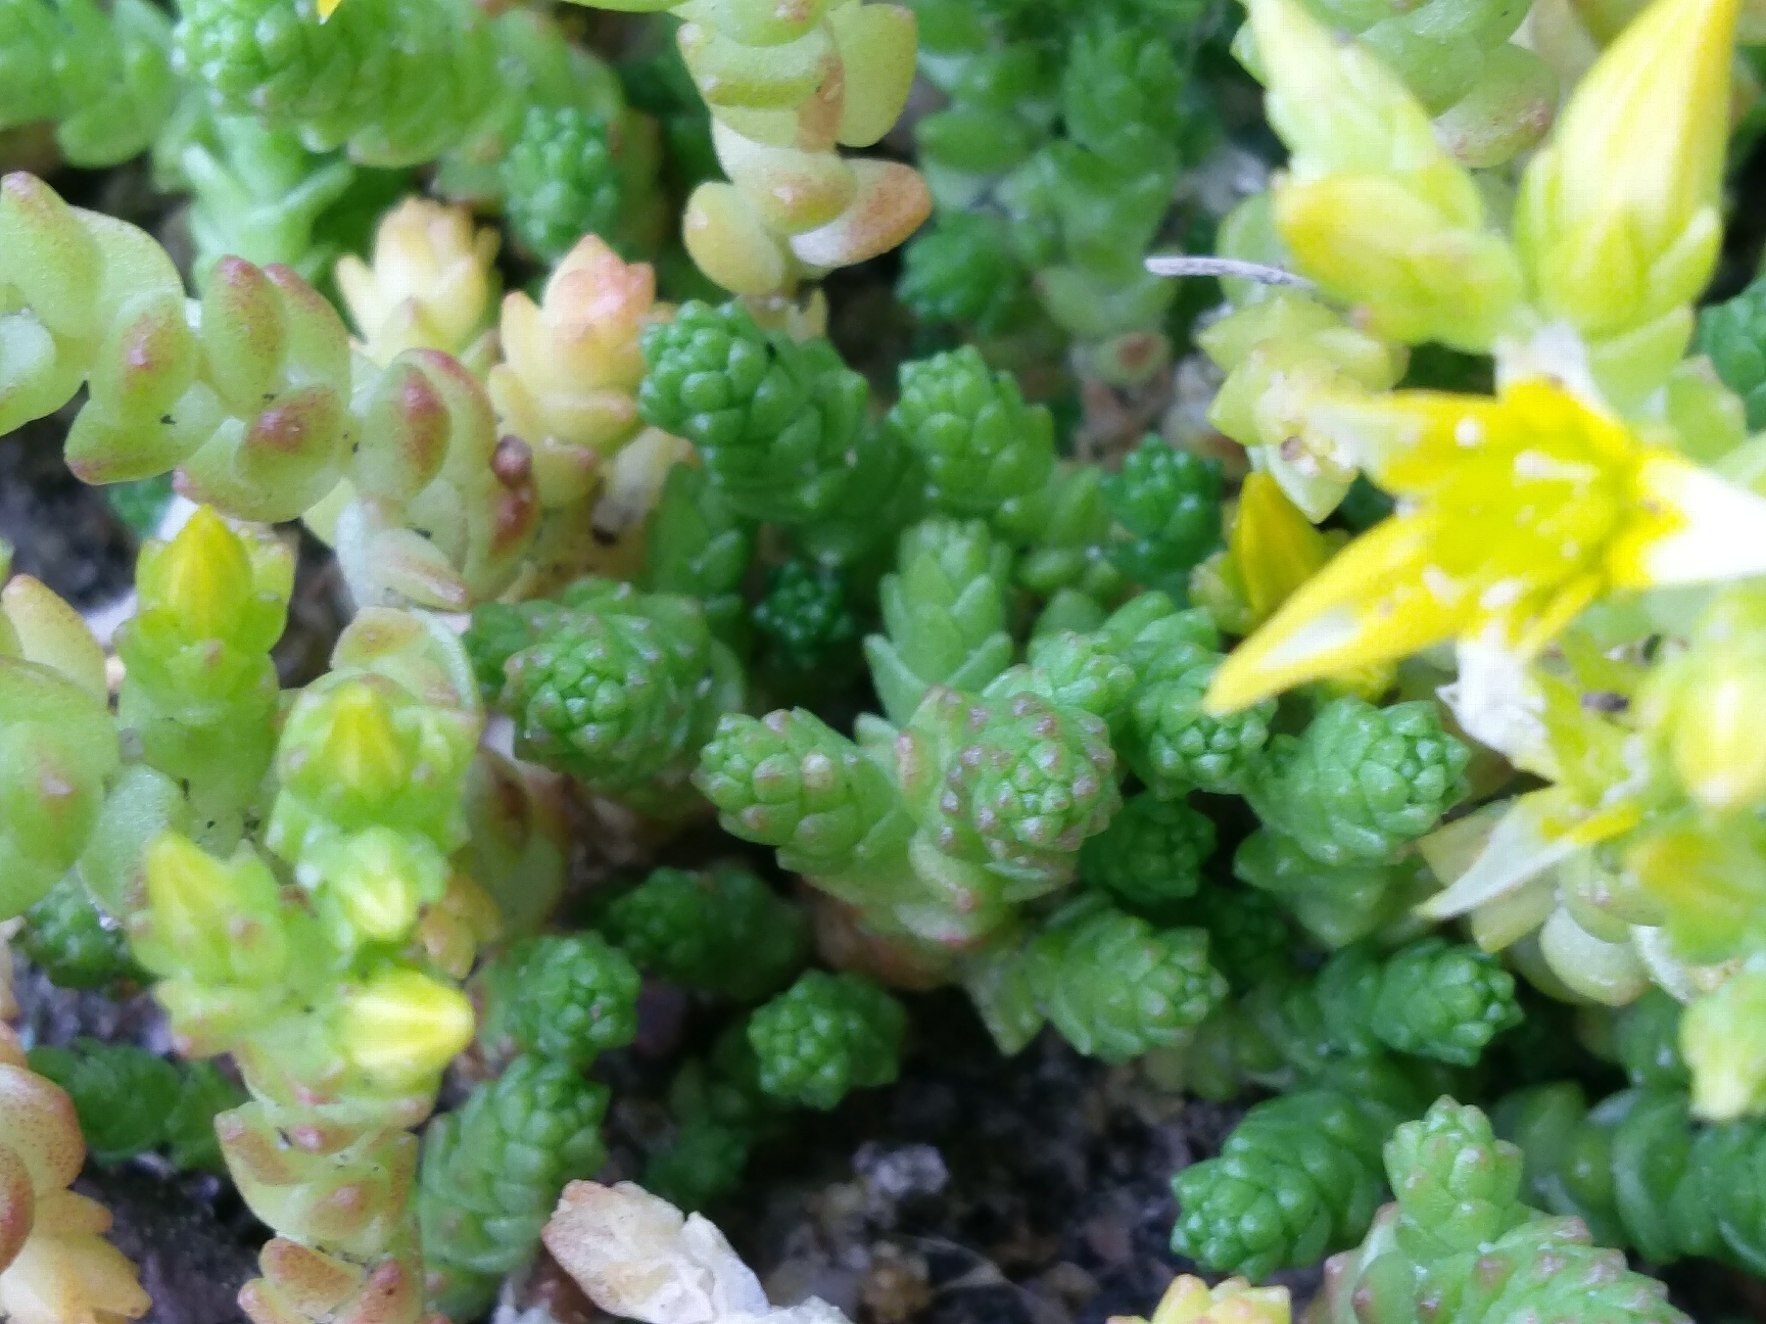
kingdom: Plantae
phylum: Tracheophyta
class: Magnoliopsida
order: Saxifragales
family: Crassulaceae
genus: Sedum
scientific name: Sedum acre
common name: Bidende stenurt
